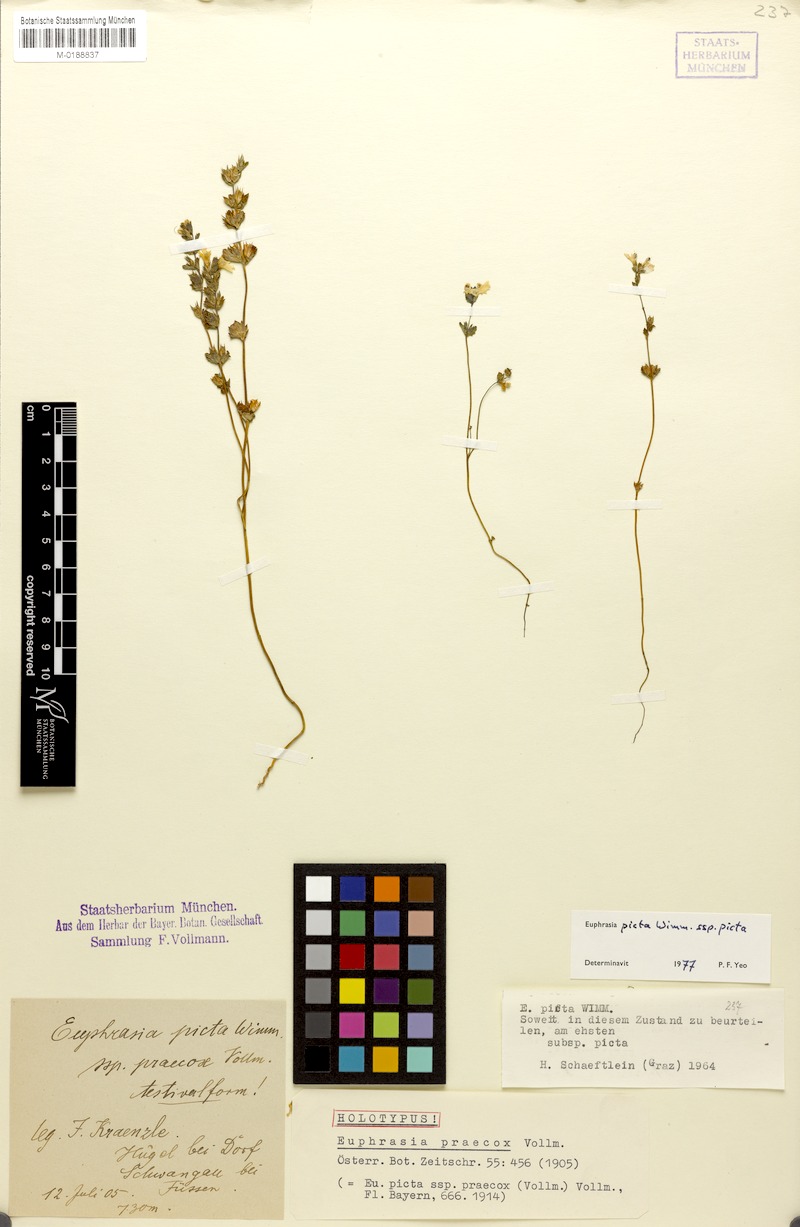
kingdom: Plantae
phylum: Tracheophyta
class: Magnoliopsida
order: Lamiales
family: Orobanchaceae
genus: Euphrasia
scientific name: Euphrasia picta
